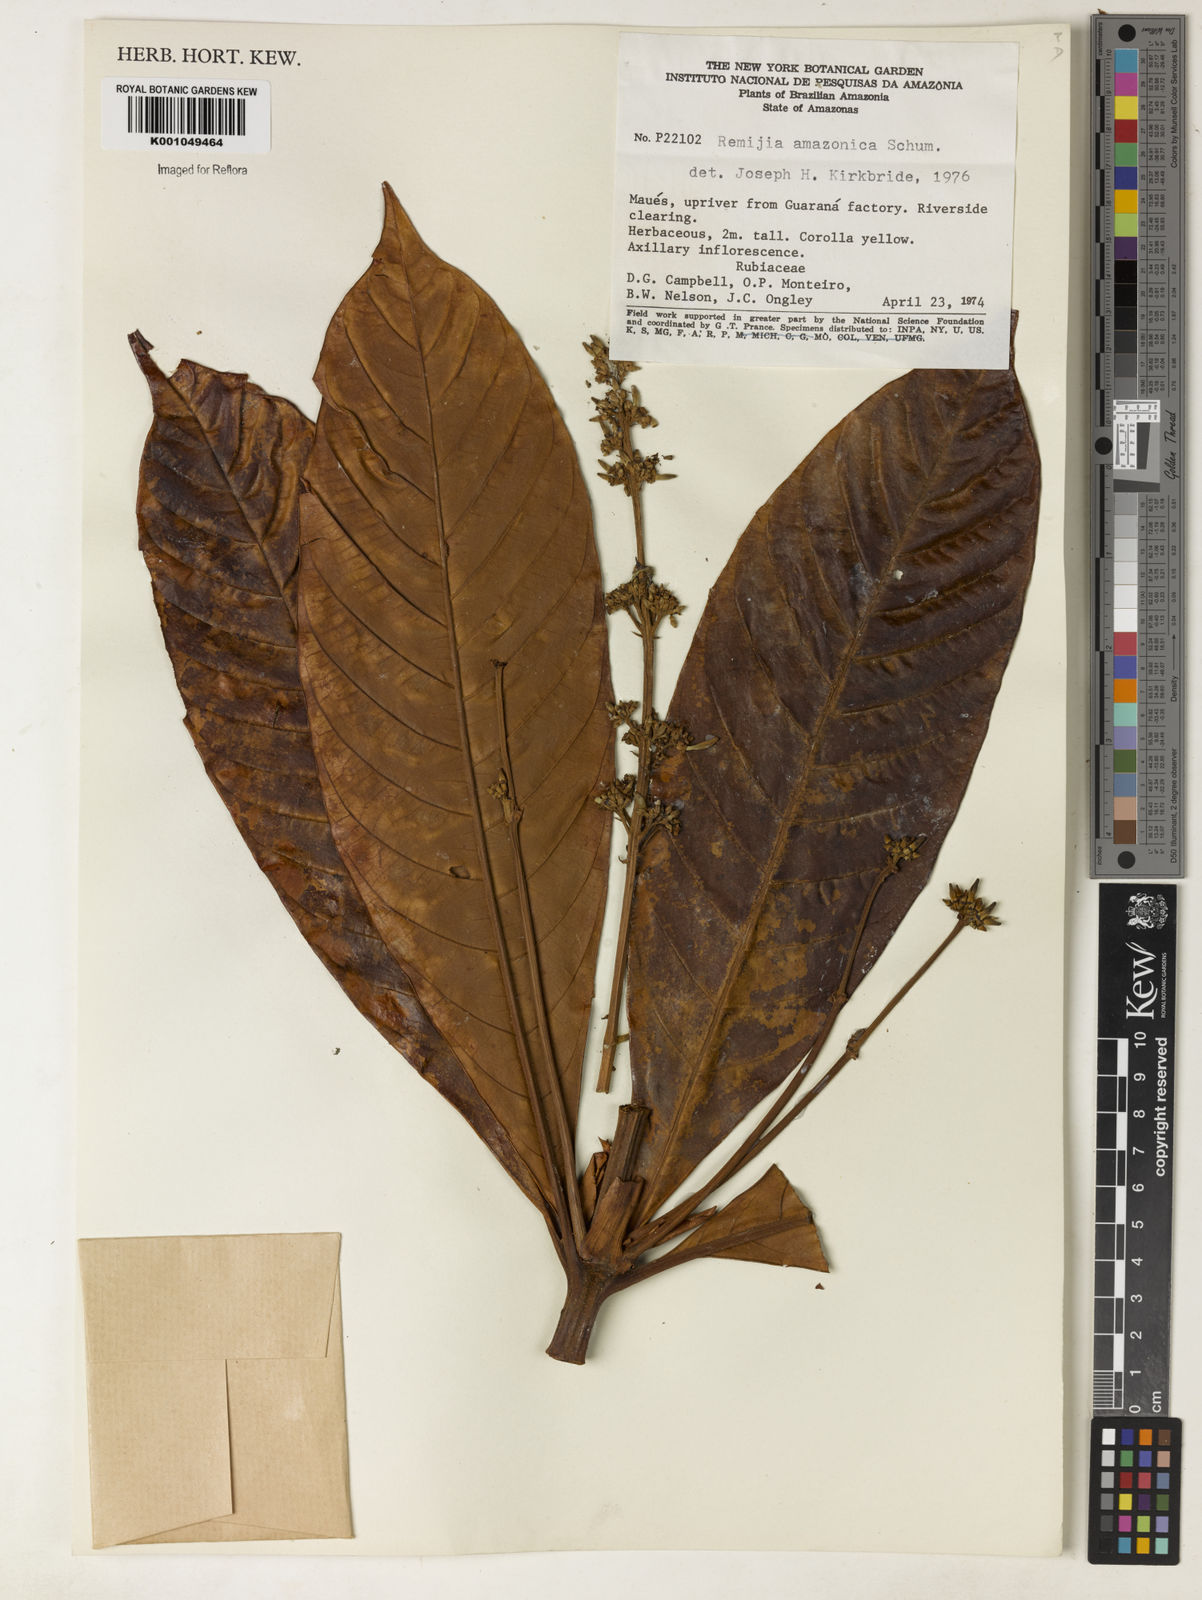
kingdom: Plantae
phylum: Tracheophyta
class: Magnoliopsida
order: Gentianales
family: Rubiaceae
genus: Remijia
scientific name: Remijia amazonica
